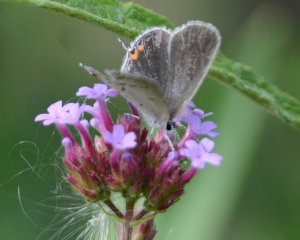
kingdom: Animalia
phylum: Arthropoda
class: Insecta
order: Lepidoptera
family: Lycaenidae
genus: Elkalyce
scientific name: Elkalyce comyntas
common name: Eastern Tailed-Blue
